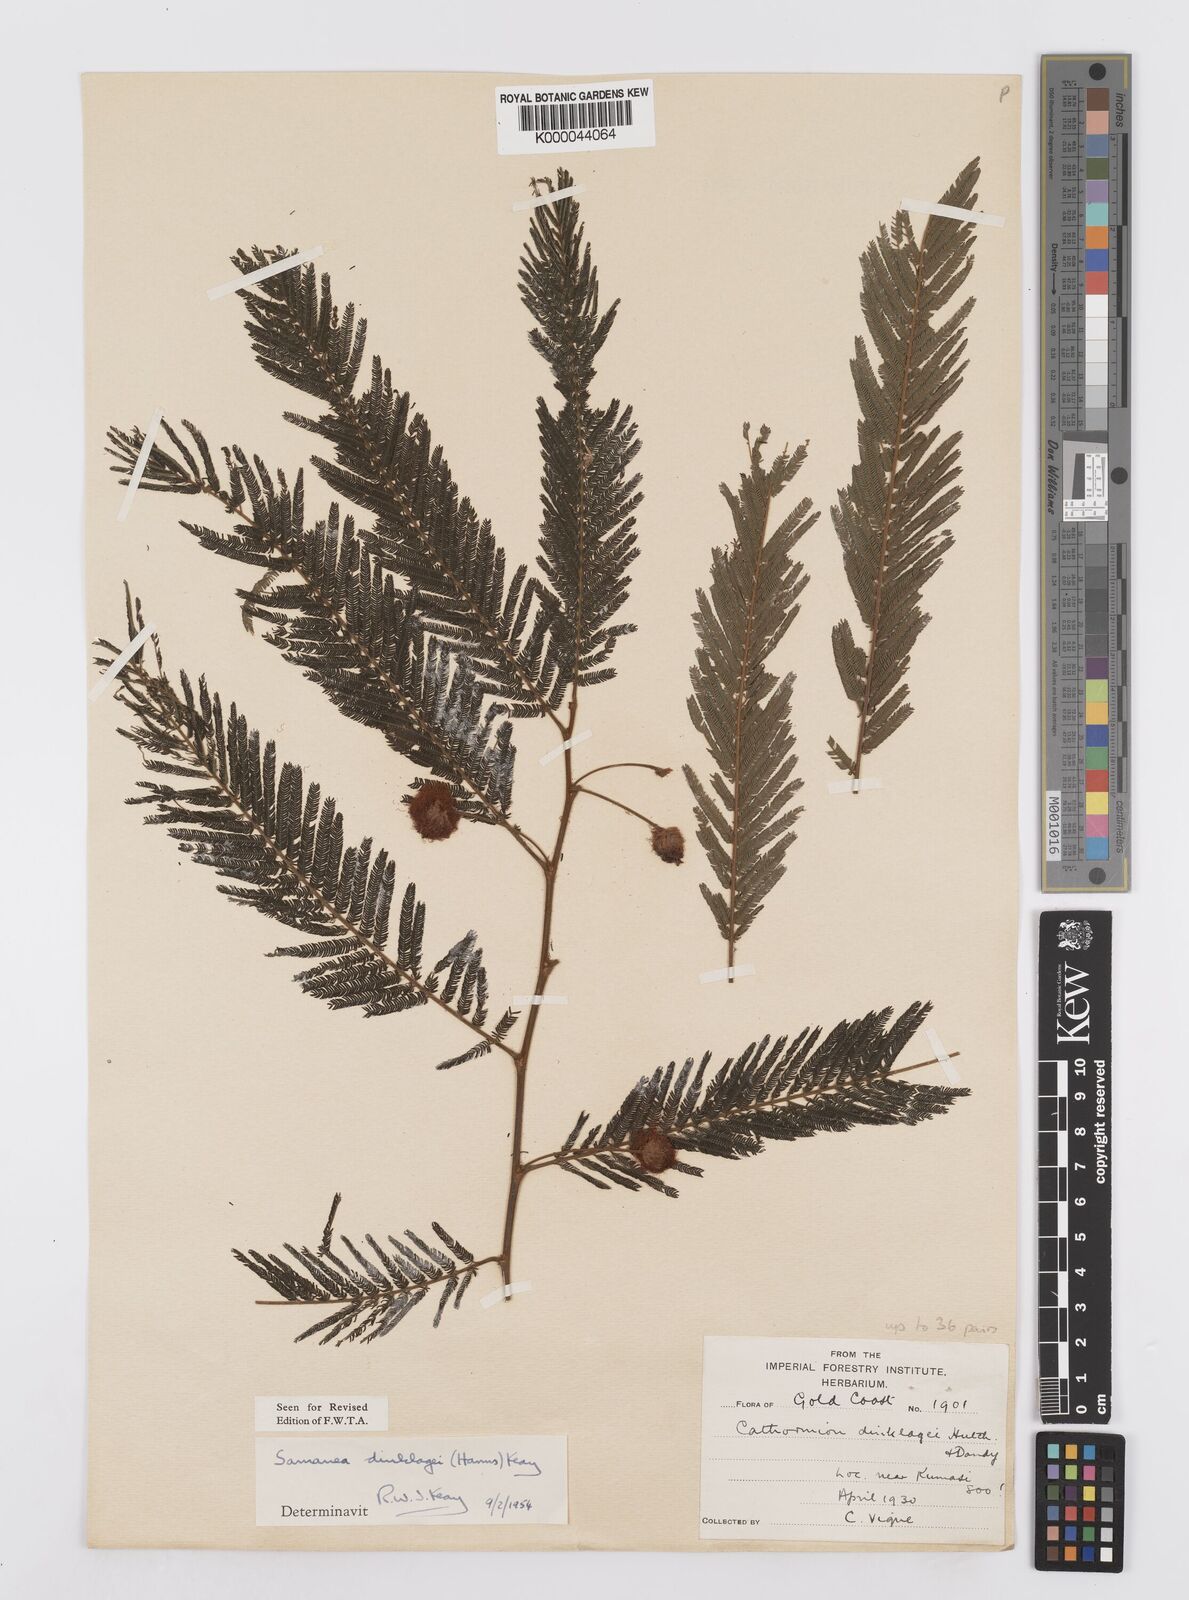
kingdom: Plantae
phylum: Tracheophyta
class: Magnoliopsida
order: Fabales
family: Fabaceae
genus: Albizia
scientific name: Albizia dinklagei
